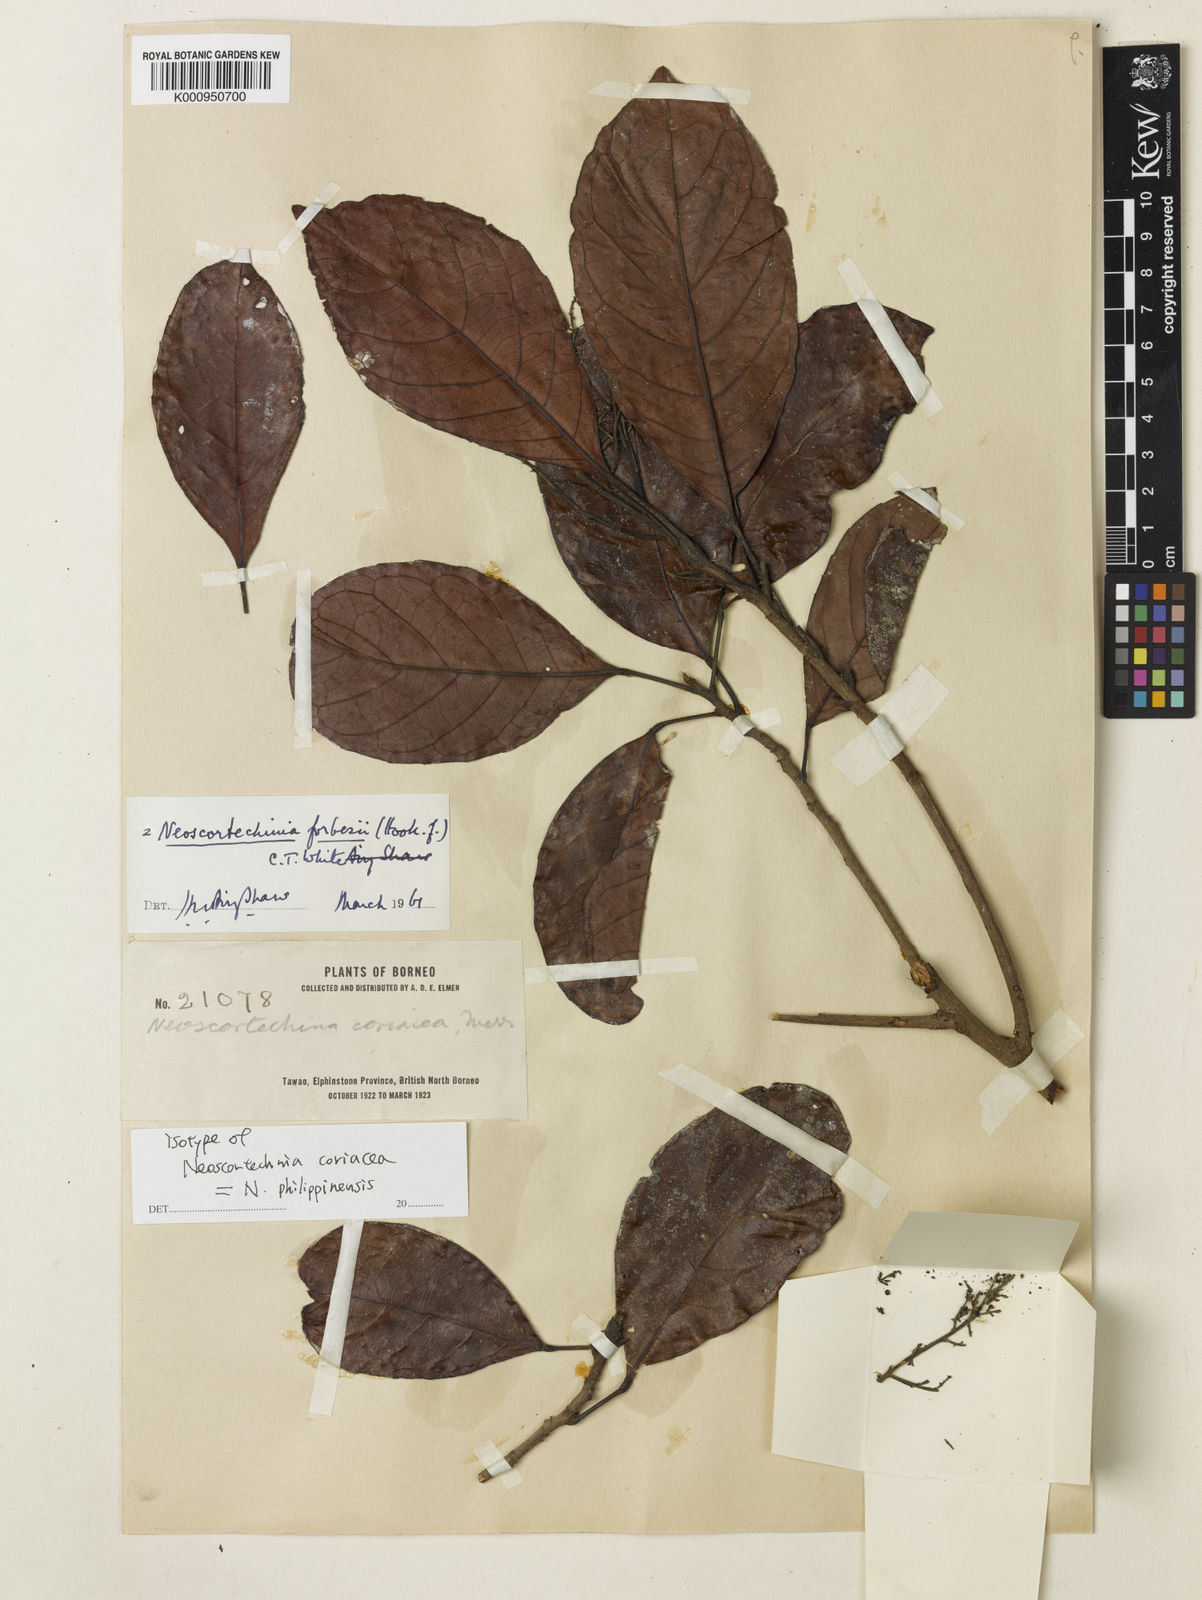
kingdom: Plantae
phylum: Tracheophyta
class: Magnoliopsida
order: Malpighiales
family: Euphorbiaceae
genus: Neoscortechinia
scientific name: Neoscortechinia philippinensis
